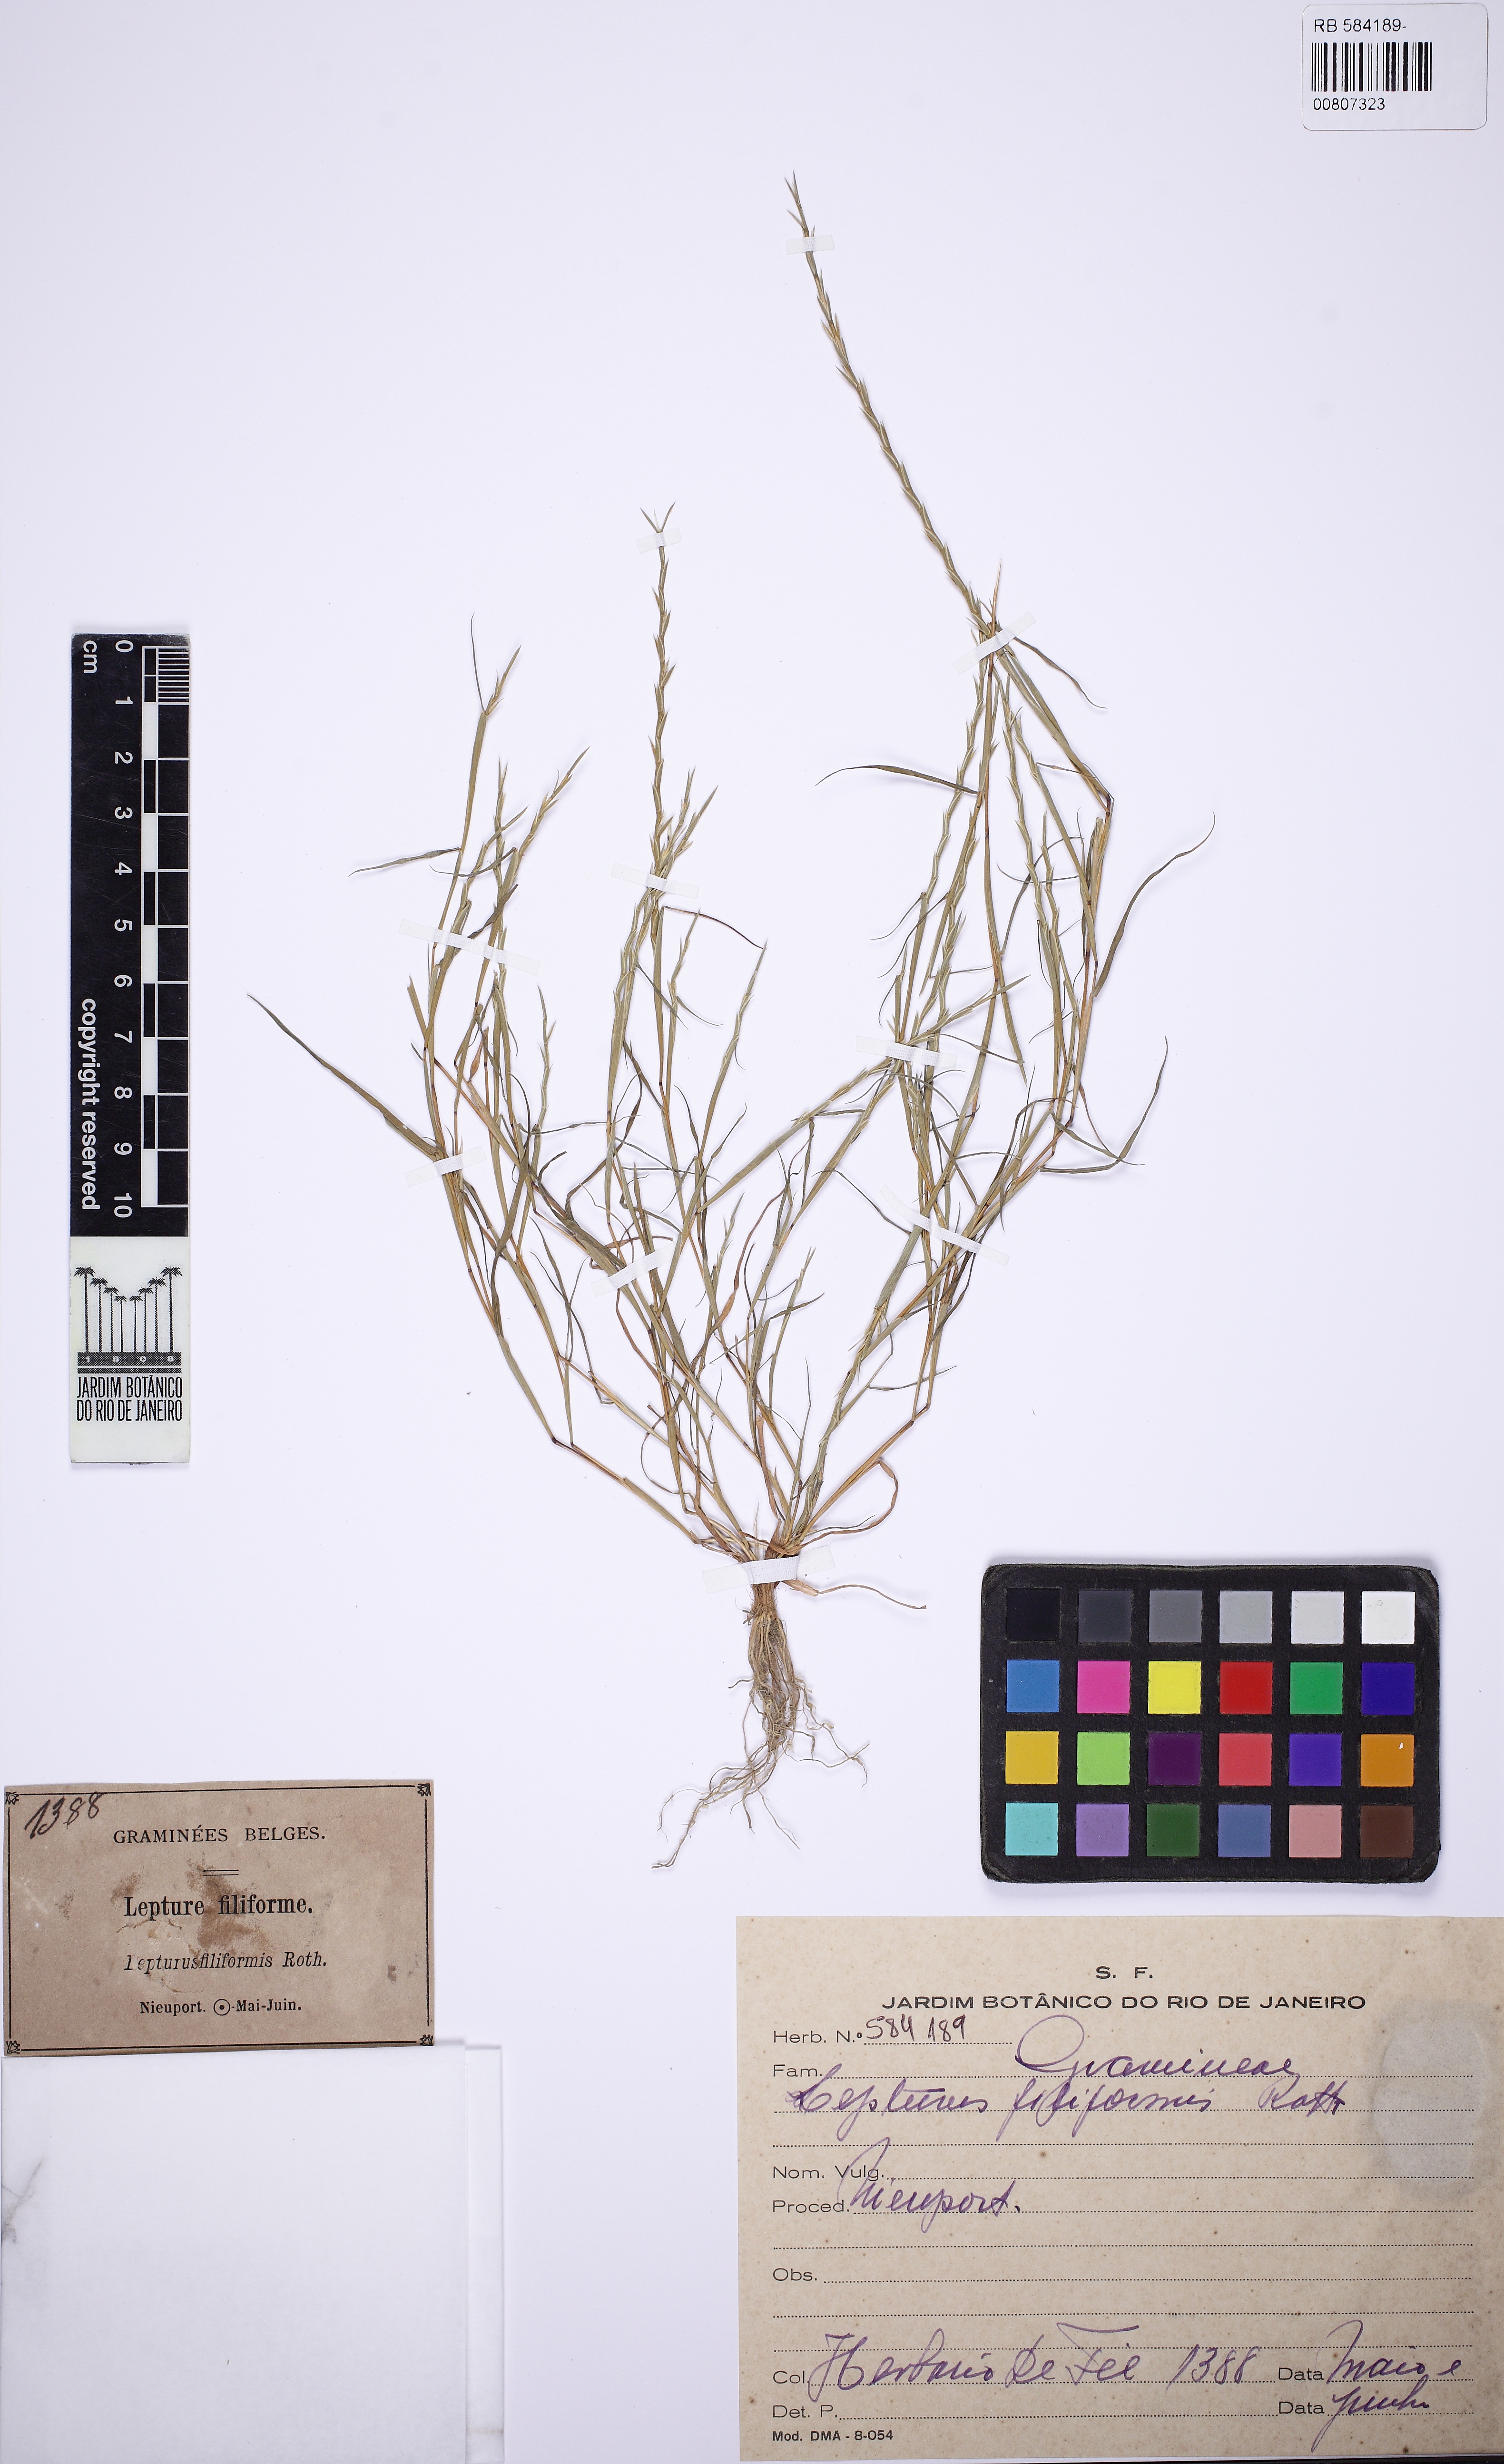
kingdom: Plantae
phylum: Tracheophyta
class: Liliopsida
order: Poales
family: Poaceae
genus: Parapholis
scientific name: Parapholis filiformis
